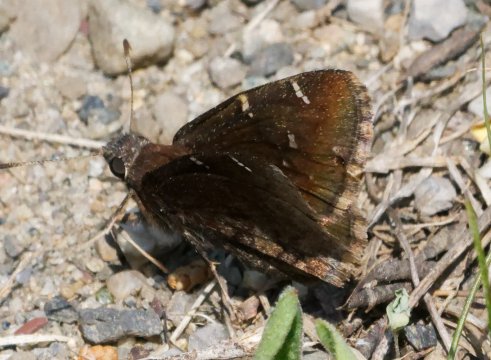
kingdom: Animalia
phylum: Arthropoda
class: Insecta
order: Lepidoptera
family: Hesperiidae
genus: Autochton
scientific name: Autochton
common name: Northern Cloudywing
